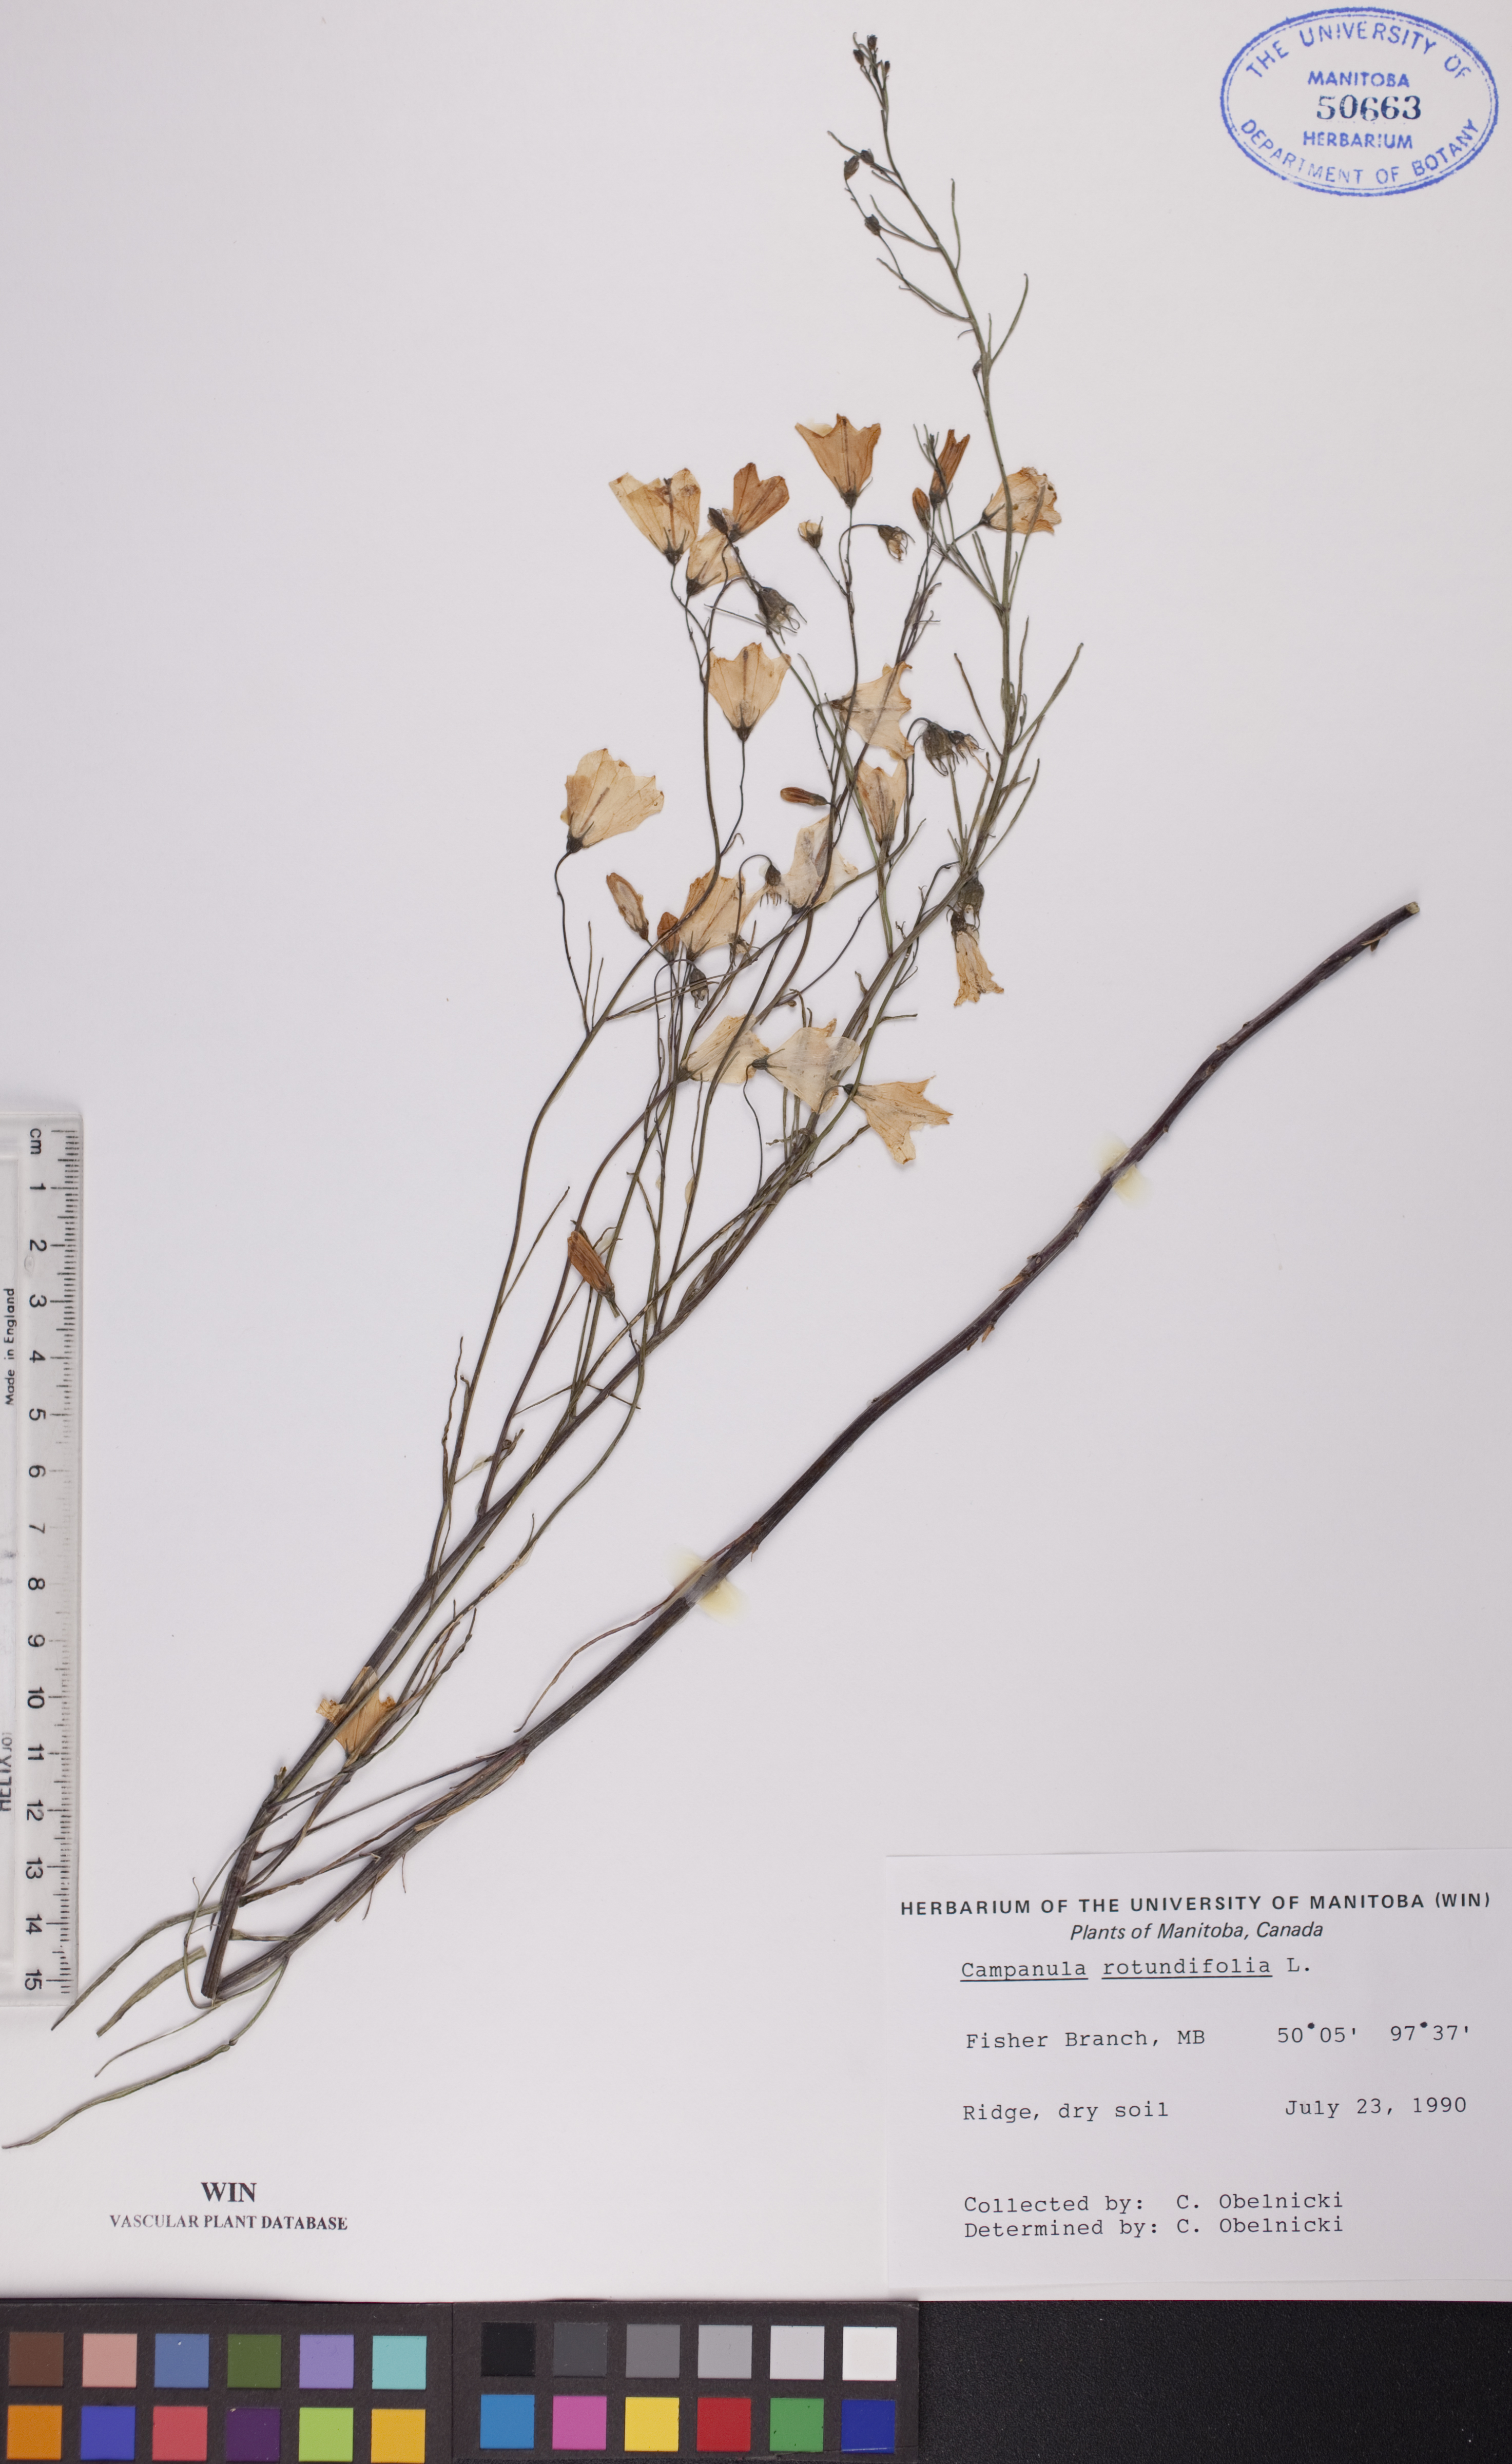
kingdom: Plantae
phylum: Tracheophyta
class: Magnoliopsida
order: Asterales
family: Campanulaceae
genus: Campanula
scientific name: Campanula rotundifolia
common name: Harebell
